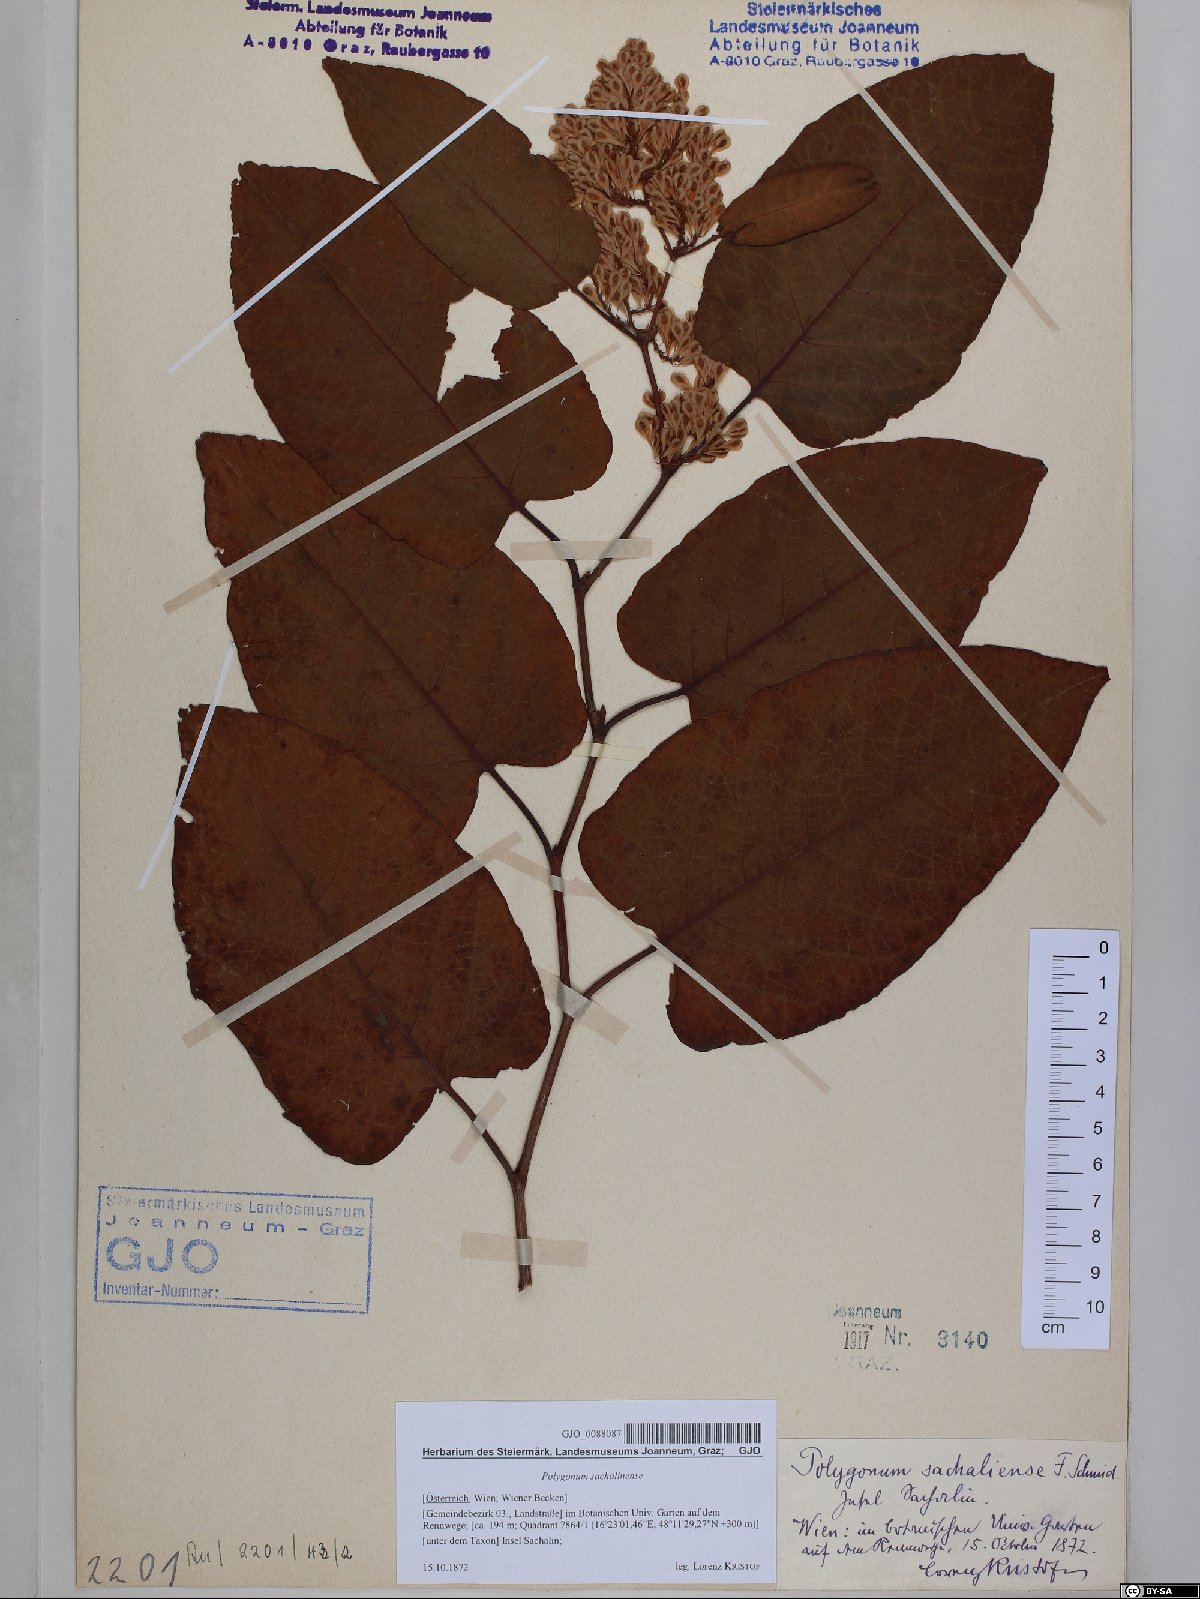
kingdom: Plantae
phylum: Tracheophyta
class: Magnoliopsida
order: Caryophyllales
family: Polygonaceae
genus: Reynoutria
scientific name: Reynoutria sachalinensis
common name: Giant knotweed
